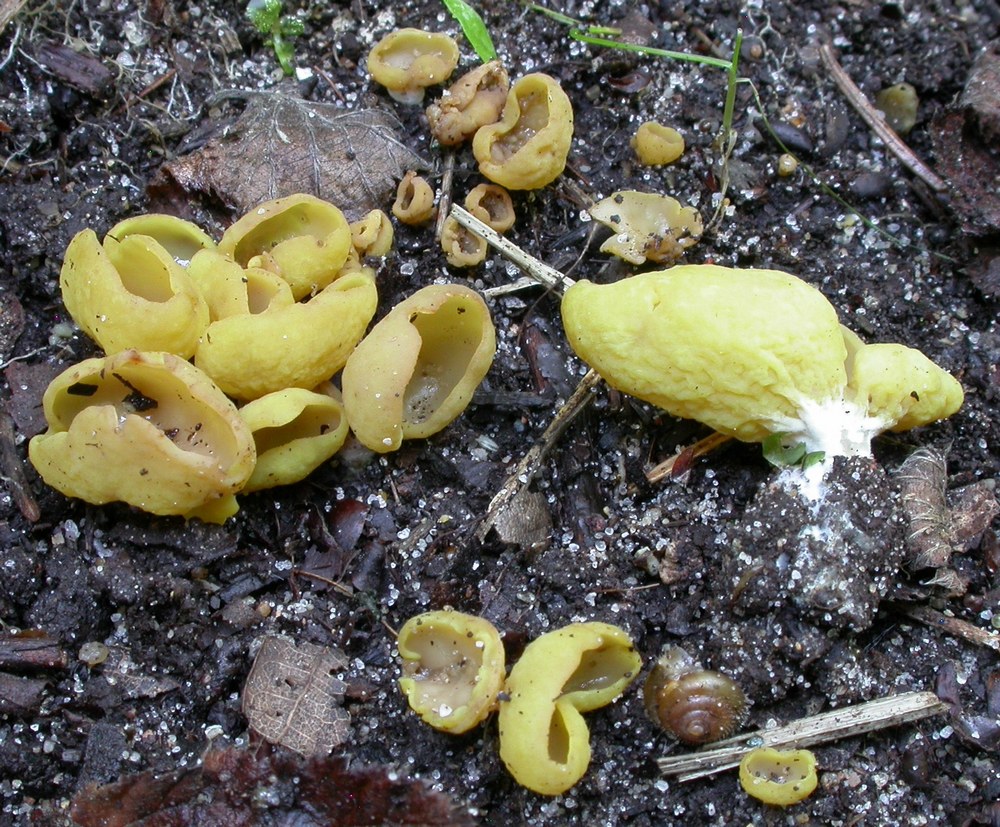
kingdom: Fungi
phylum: Ascomycota
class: Pezizomycetes
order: Pezizales
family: Otideaceae
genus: Otidea
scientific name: Otidea phlebophora
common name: året ørebæger
